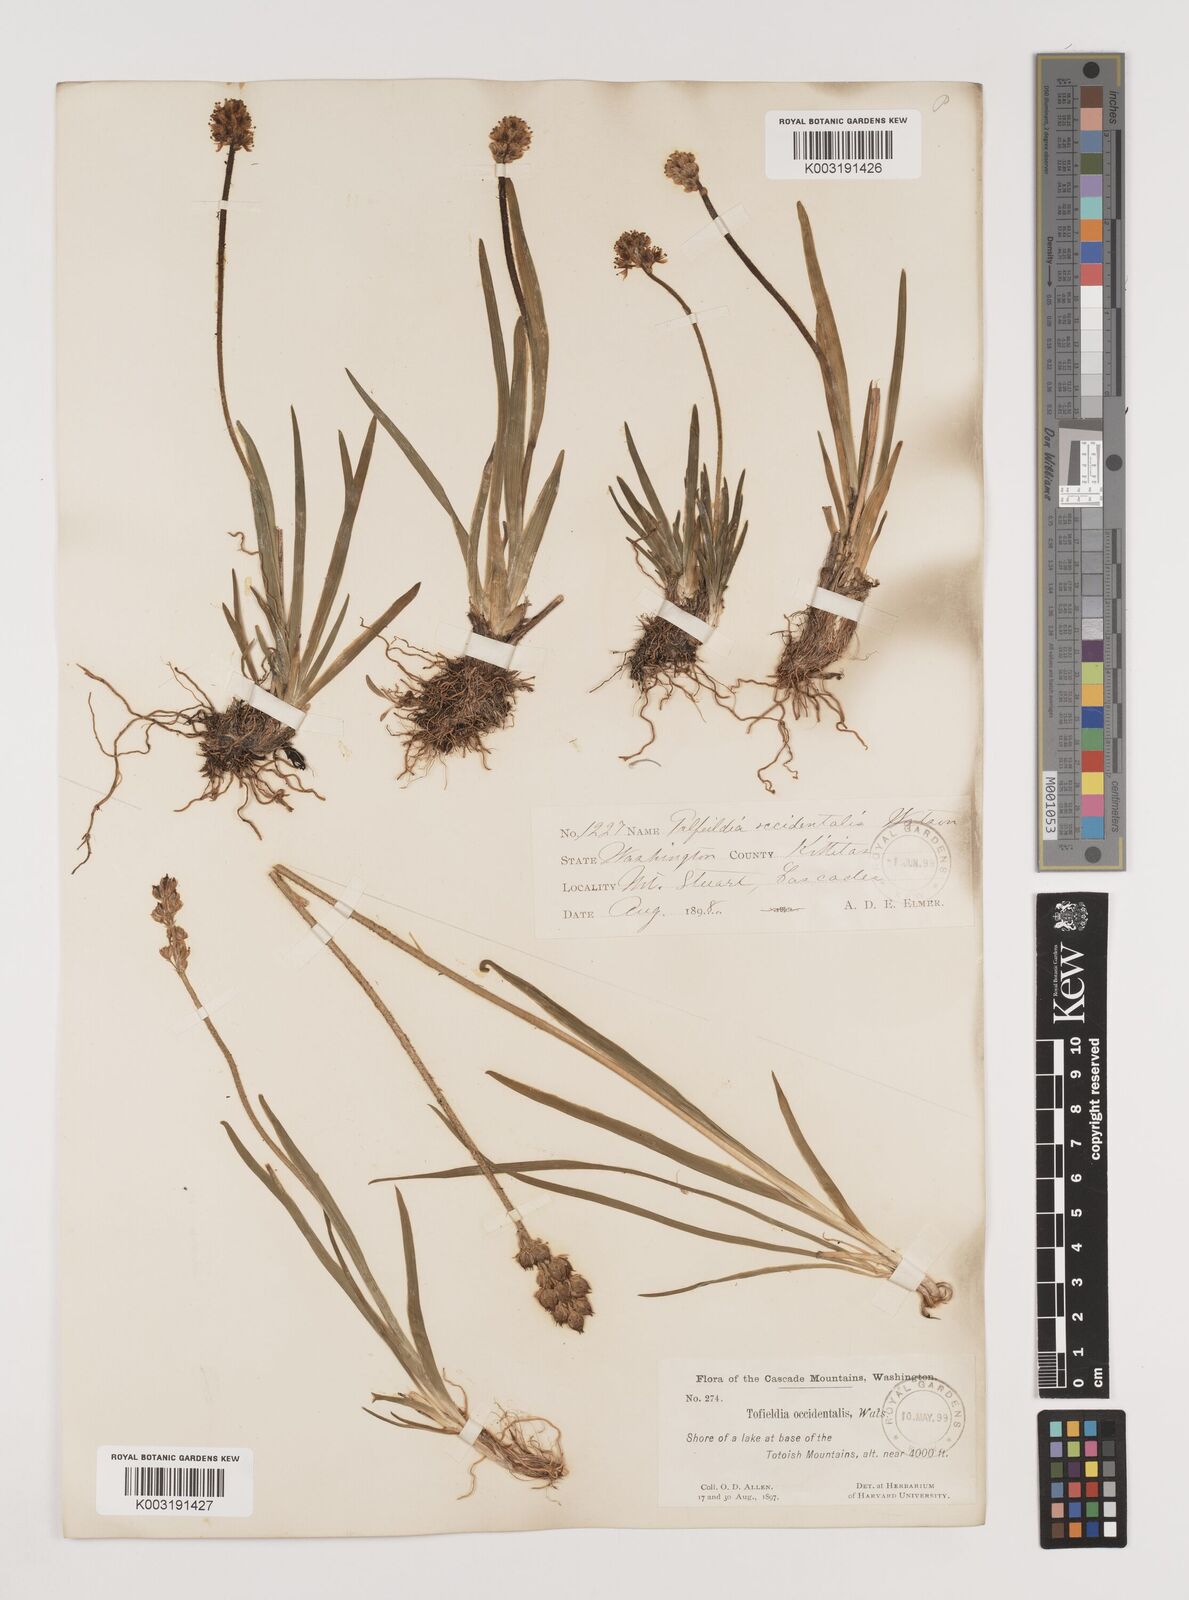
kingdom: Plantae
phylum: Tracheophyta
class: Liliopsida
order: Alismatales
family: Tofieldiaceae
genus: Triantha
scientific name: Triantha occidentalis
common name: Western false asphodel
